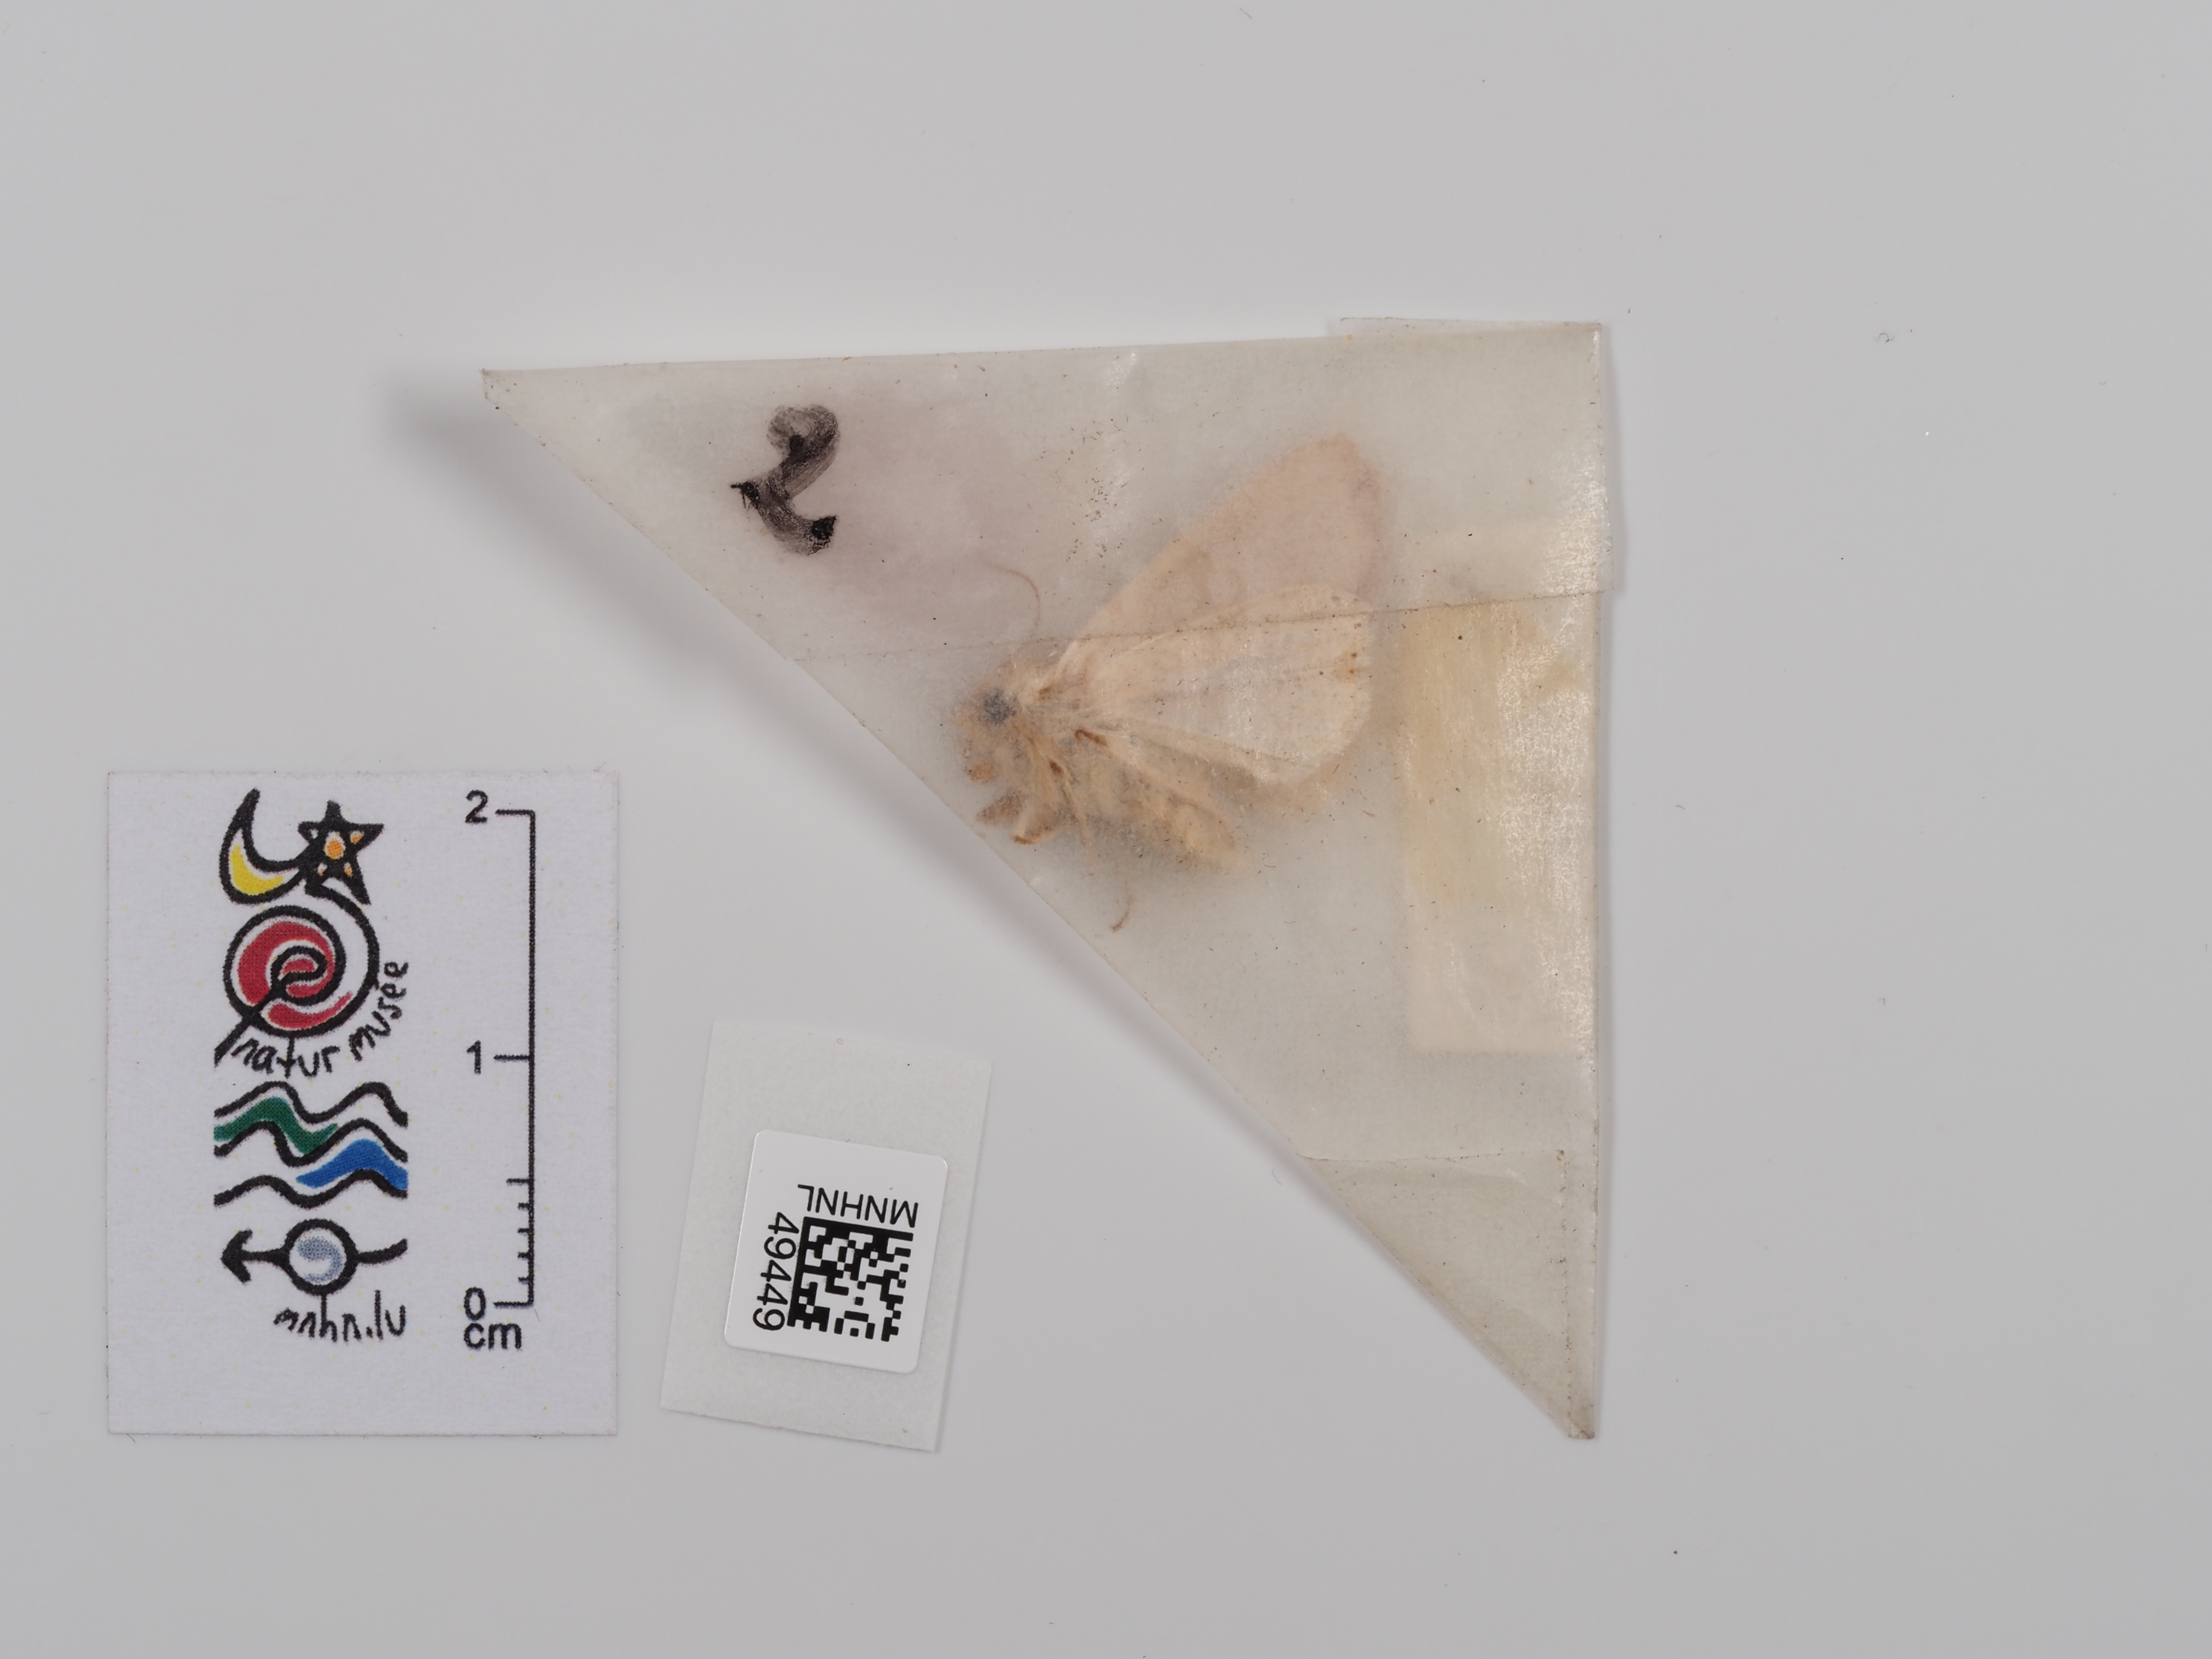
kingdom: Animalia
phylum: Arthropoda
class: Insecta
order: Lepidoptera
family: Noctuidae
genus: Mythimna
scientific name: Mythimna pallens
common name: Common wainscot
